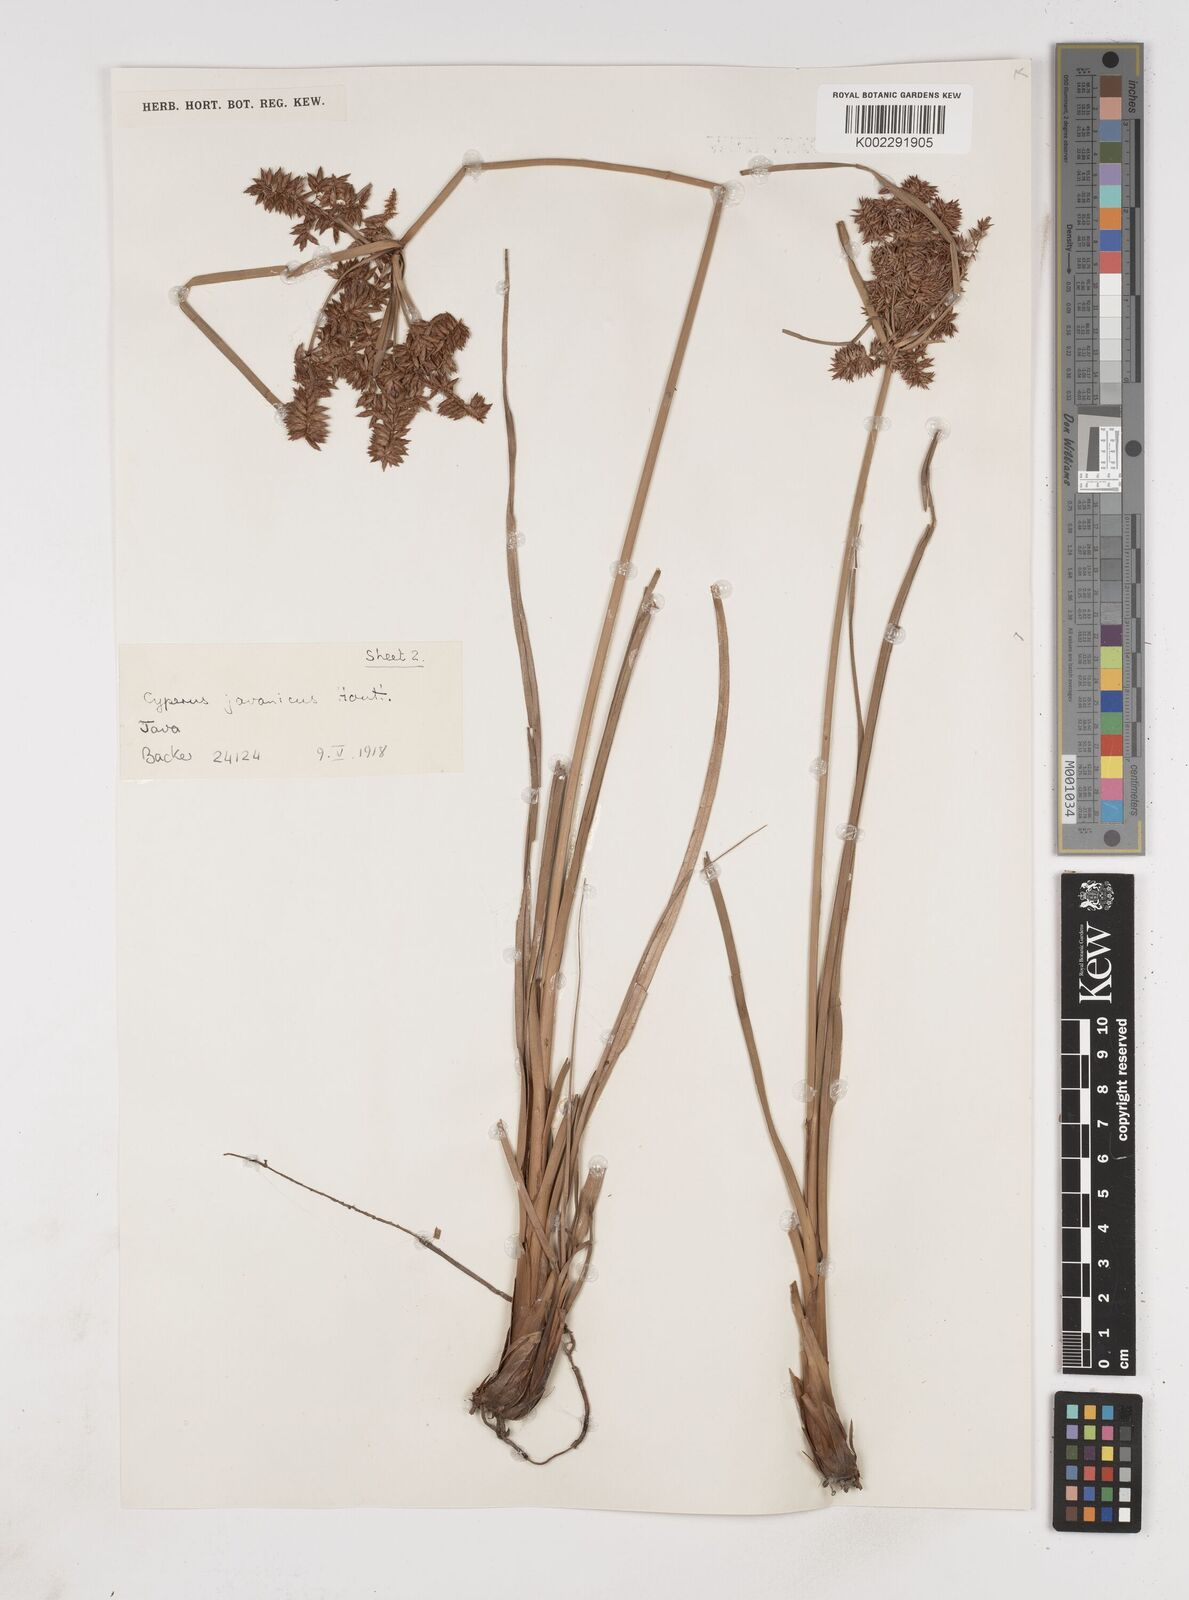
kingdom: Plantae
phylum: Tracheophyta
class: Liliopsida
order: Poales
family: Cyperaceae
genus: Cyperus
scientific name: Cyperus javanicus
